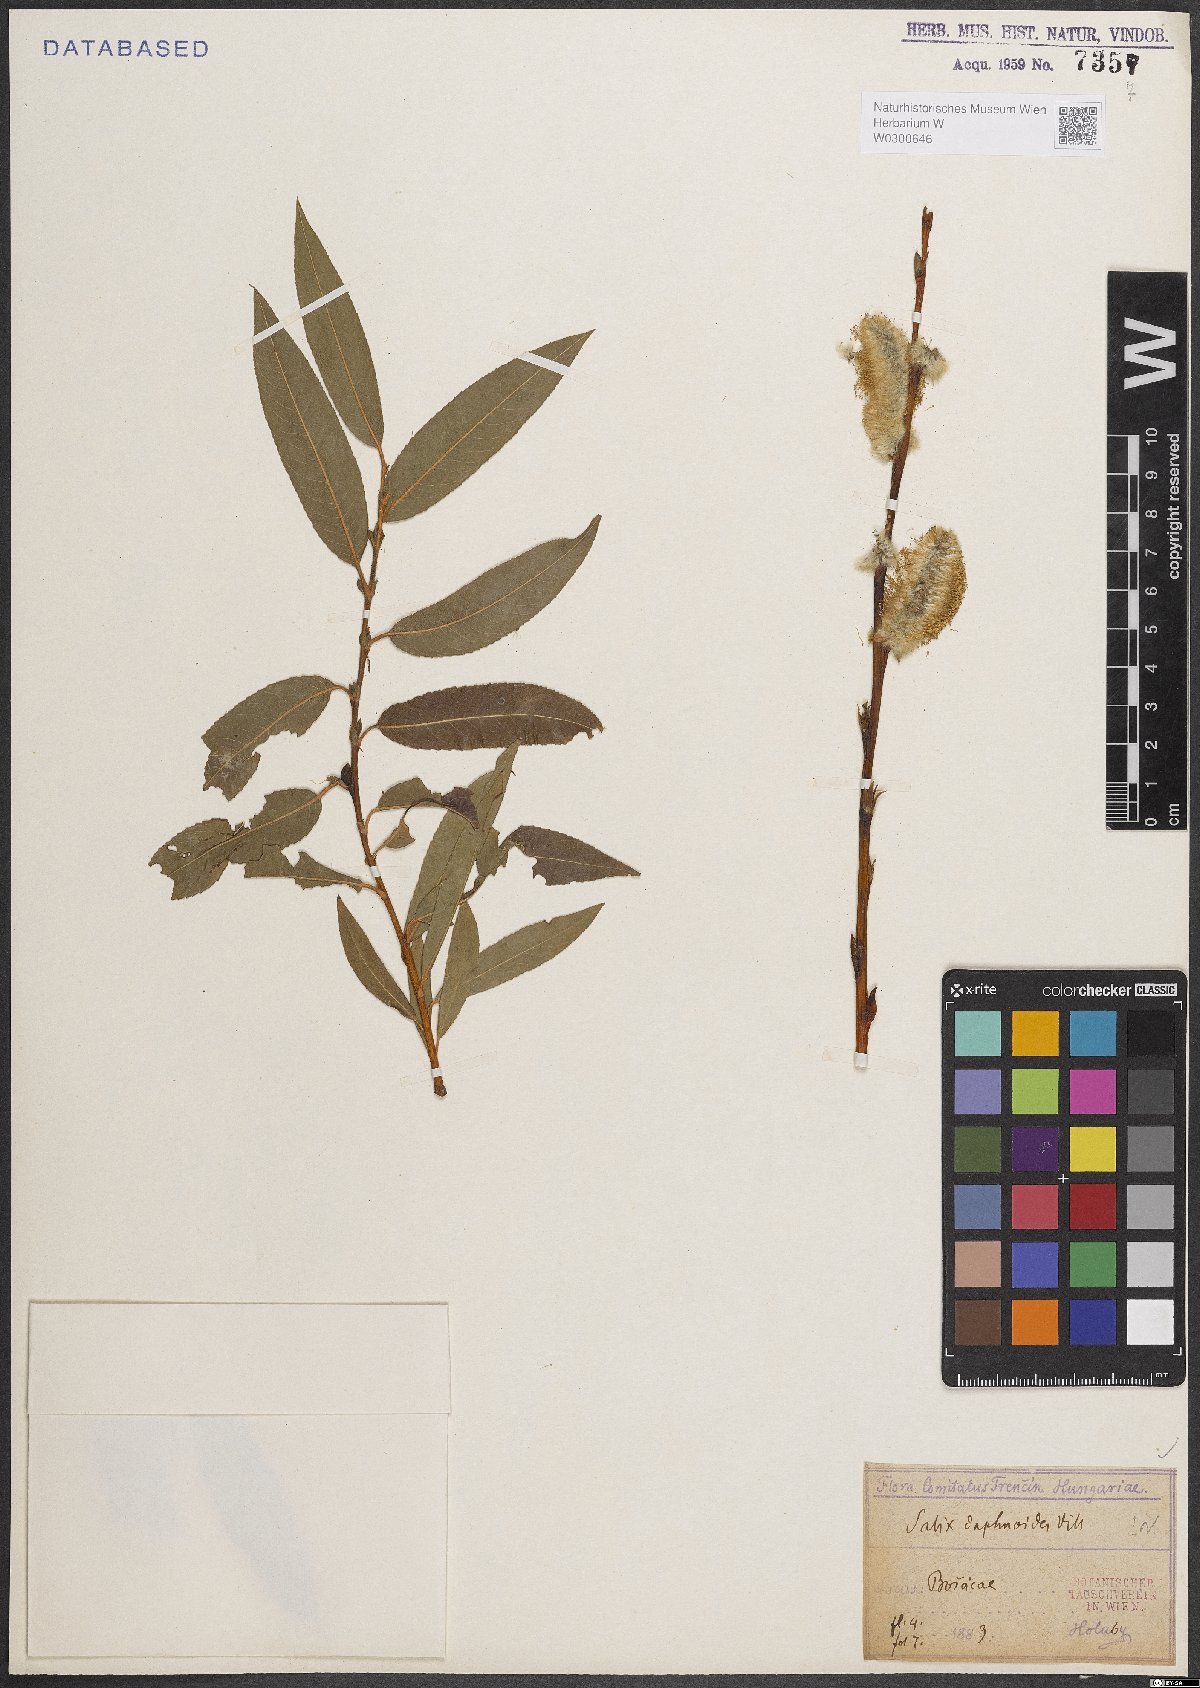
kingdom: Plantae
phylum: Tracheophyta
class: Magnoliopsida
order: Malpighiales
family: Salicaceae
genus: Salix
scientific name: Salix daphnoides
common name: European violet-willow
